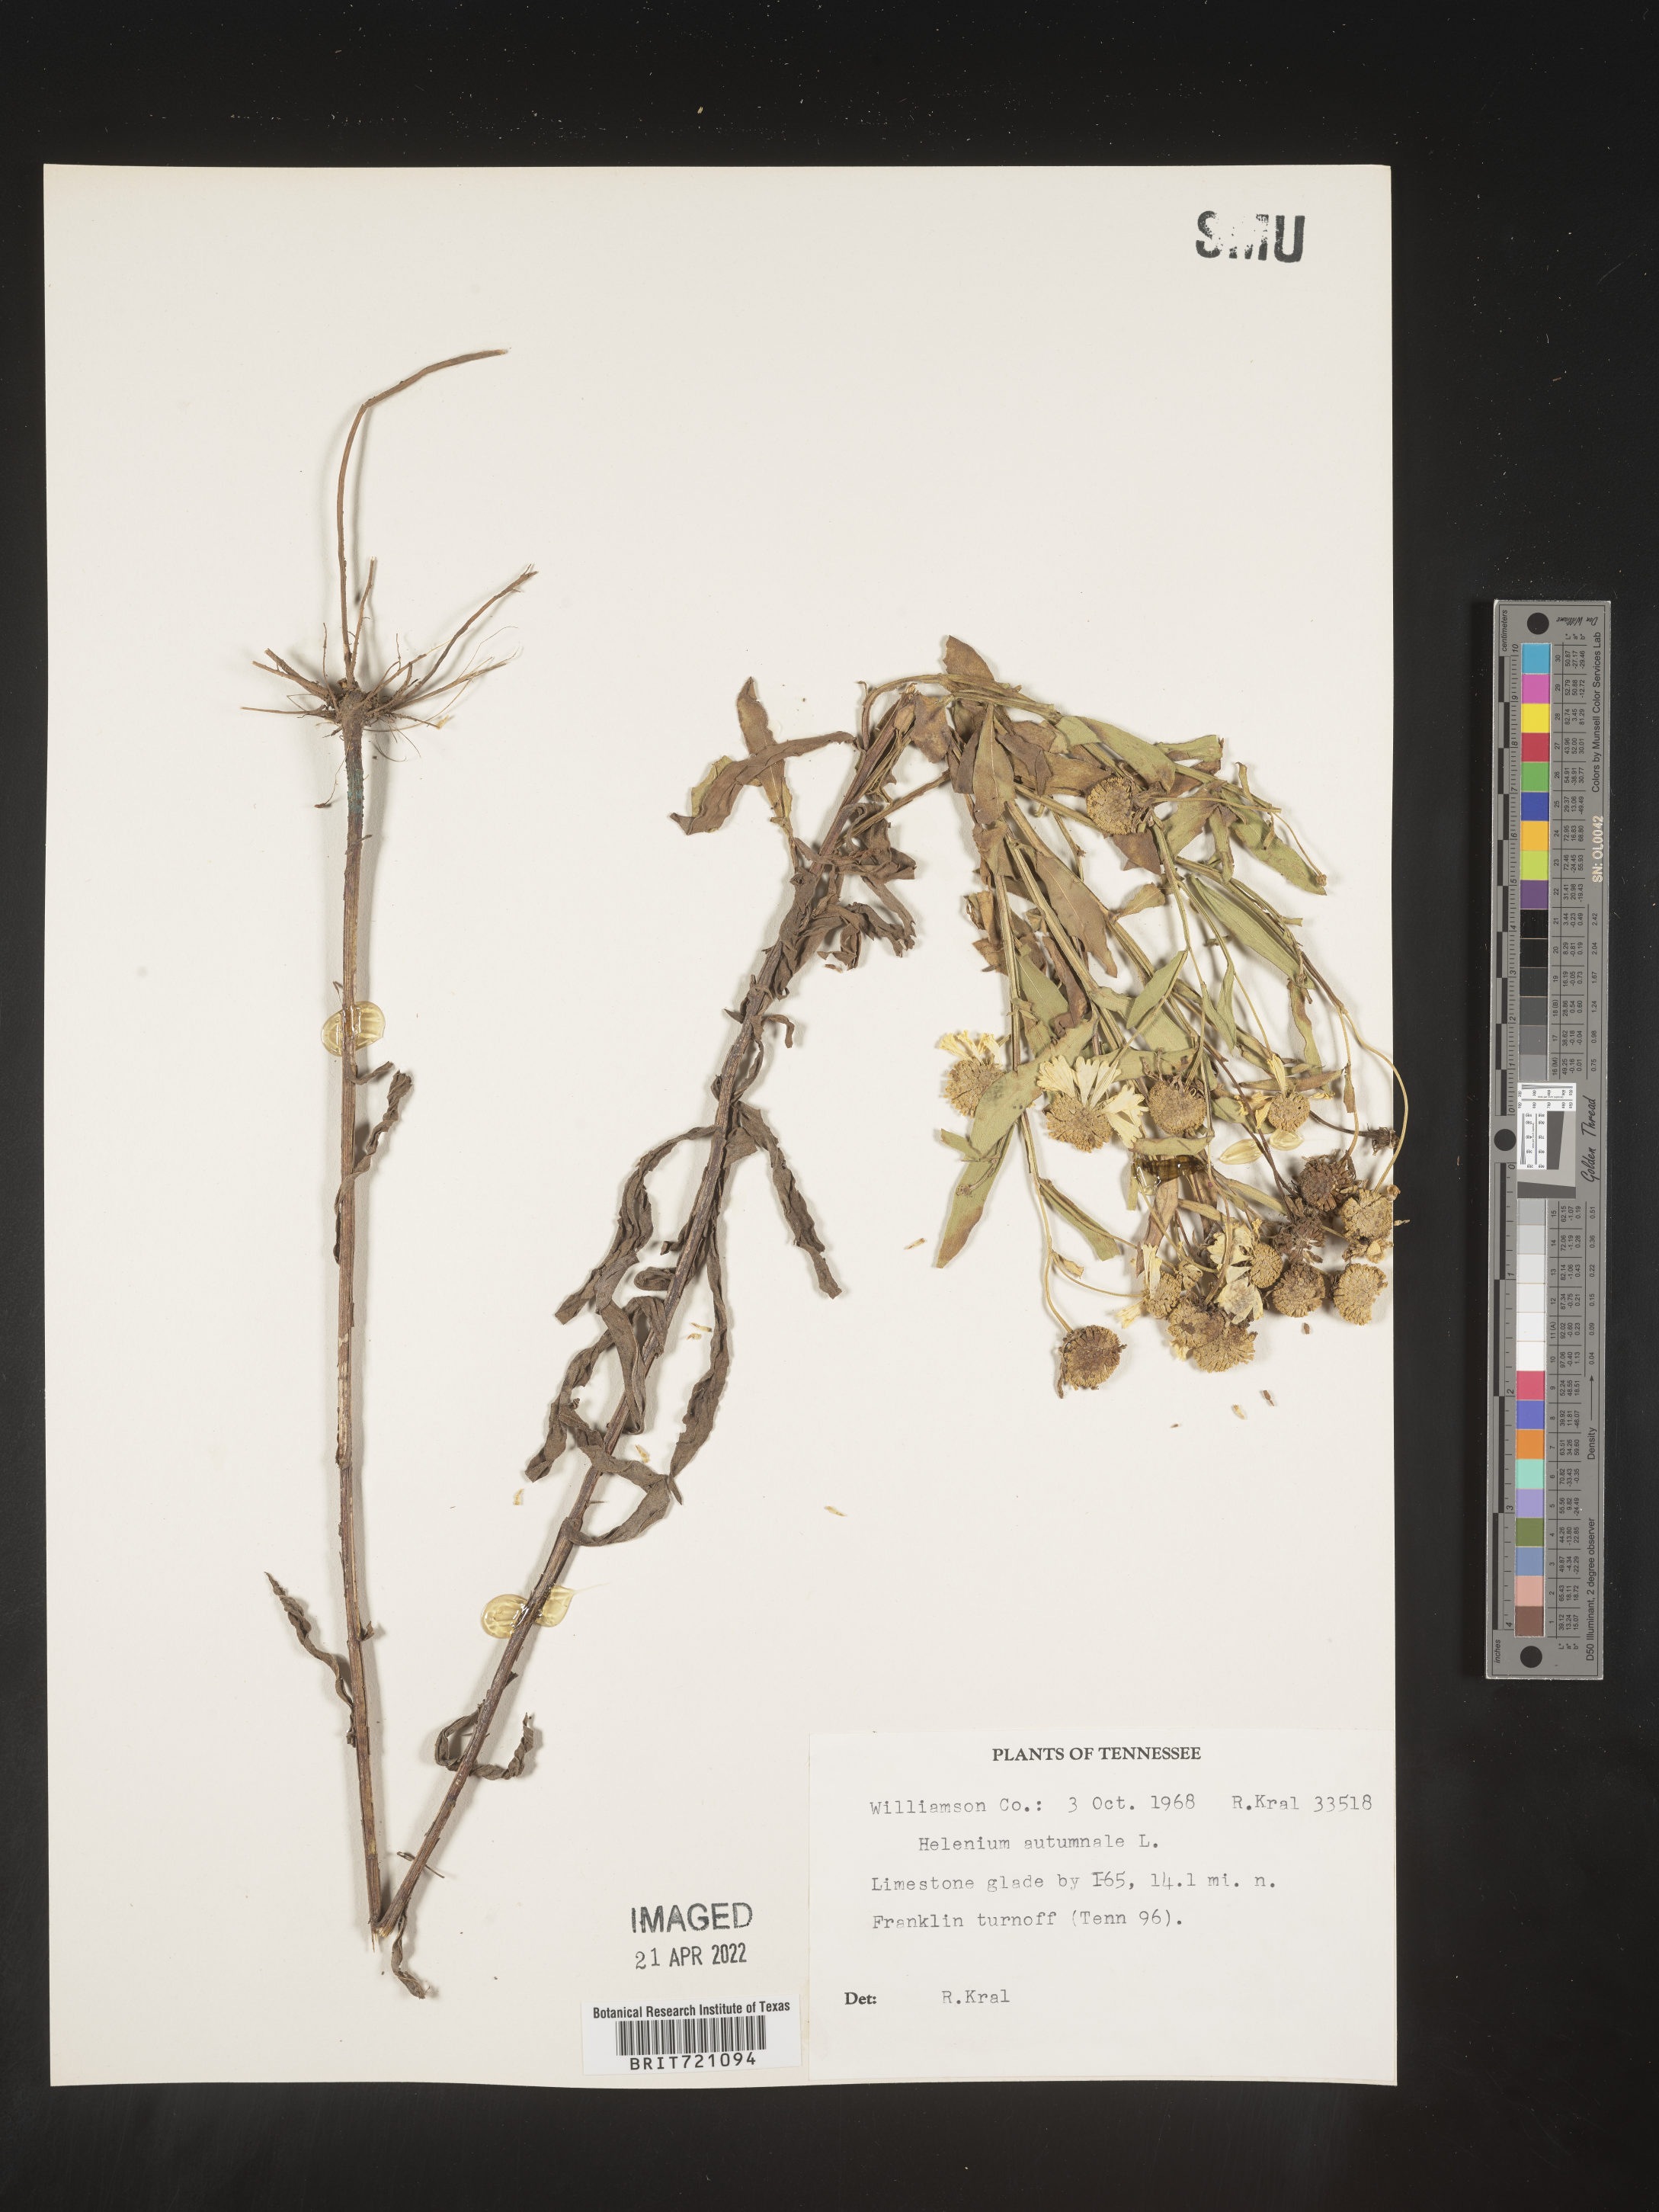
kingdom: Plantae
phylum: Tracheophyta
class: Magnoliopsida
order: Asterales
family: Asteraceae
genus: Helenium
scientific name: Helenium autumnale
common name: Sneezeweed
